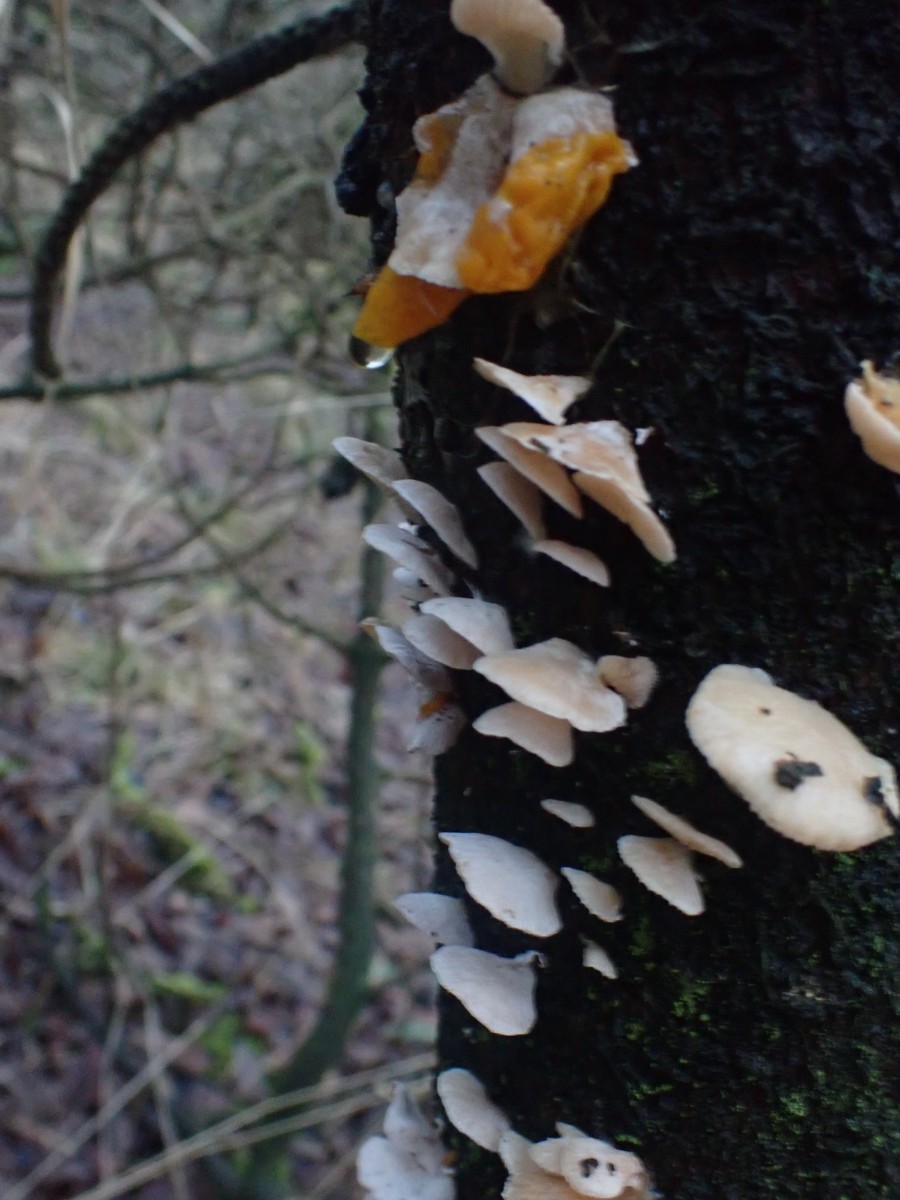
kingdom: Fungi
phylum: Basidiomycota
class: Agaricomycetes
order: Agaricales
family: Mycenaceae
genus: Panellus
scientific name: Panellus mitis
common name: mild epaulethat
